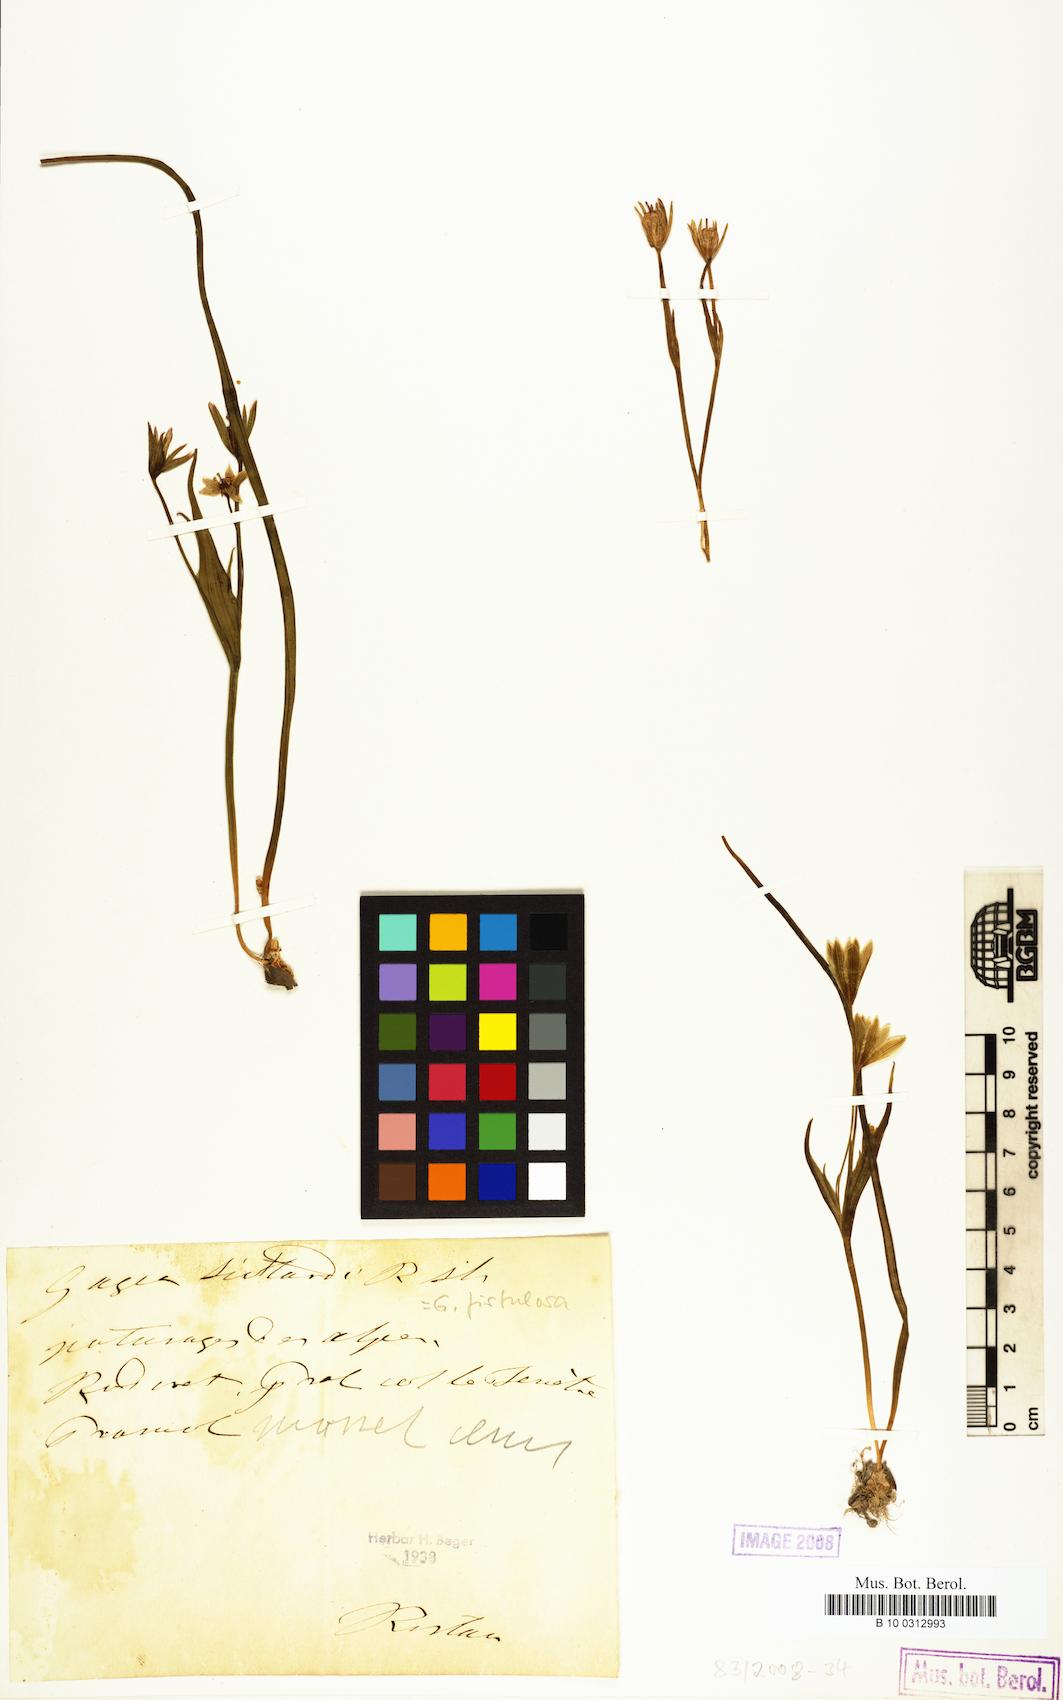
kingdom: Plantae
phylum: Tracheophyta
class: Liliopsida
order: Liliales
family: Liliaceae
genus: Gagea
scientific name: Gagea
